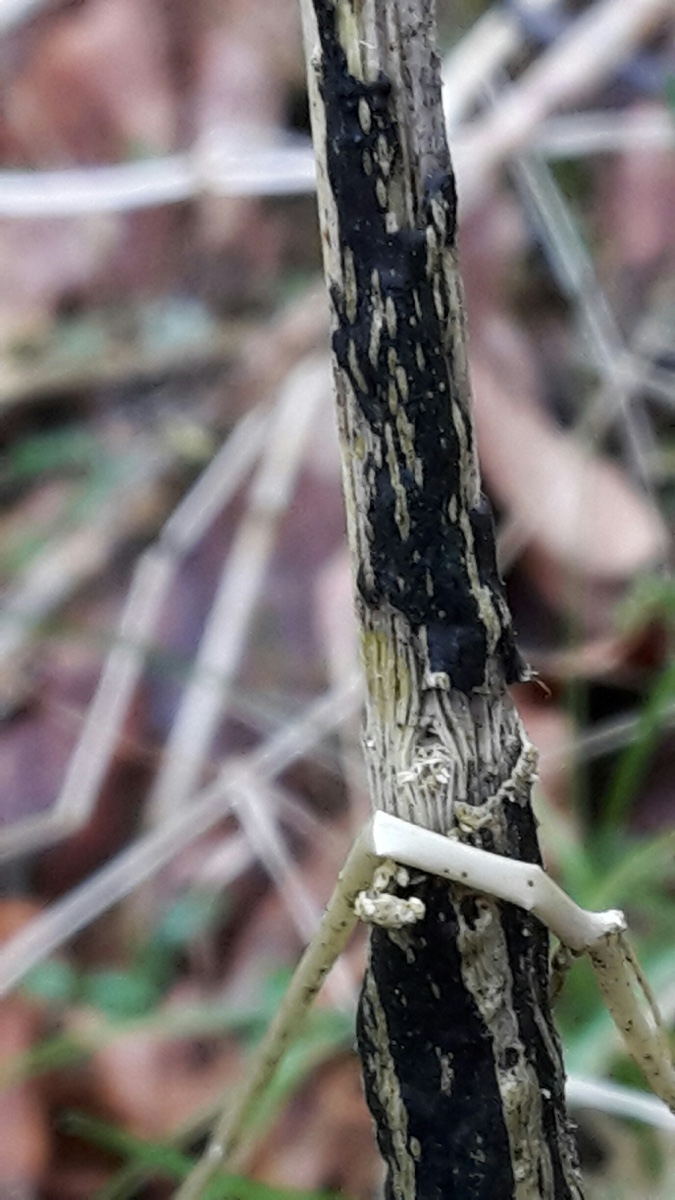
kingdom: Fungi
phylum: Ascomycota
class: Sordariomycetes
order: Diaporthales
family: Diaporthaceae
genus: Diaporthopsis
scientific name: Diaporthopsis urticae
